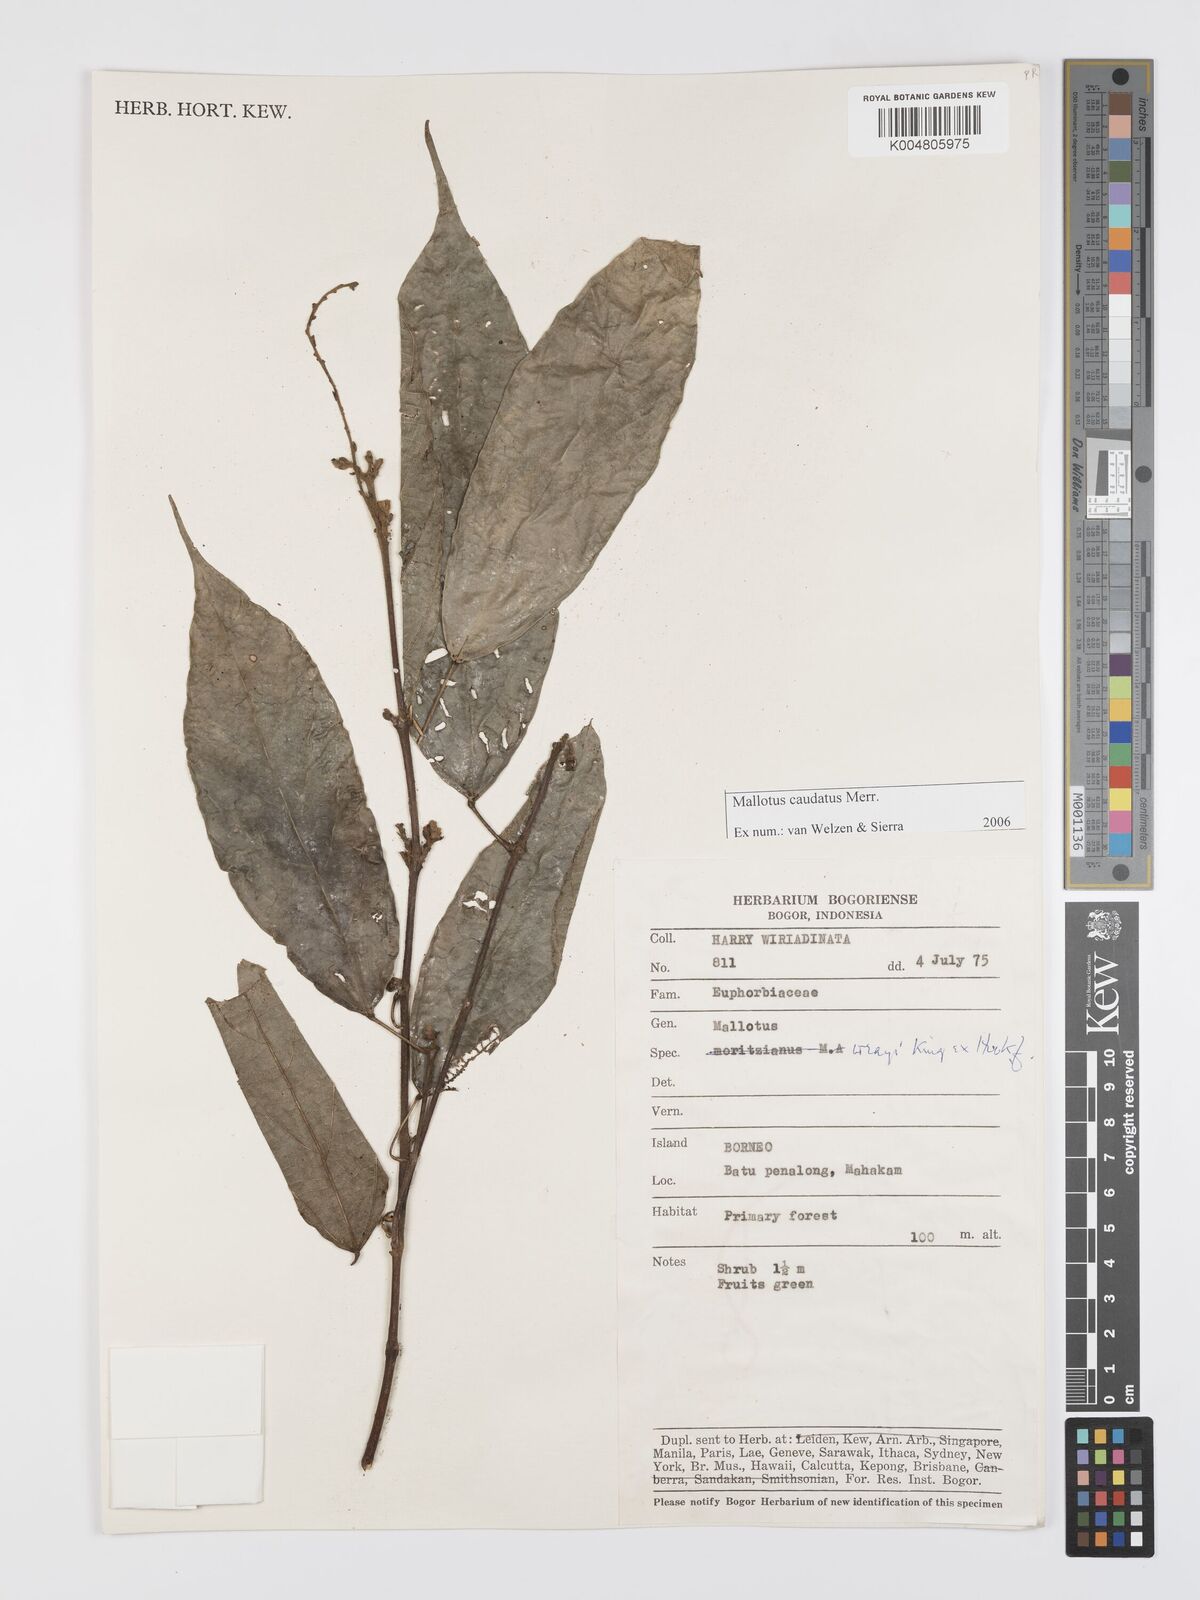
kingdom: Plantae
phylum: Tracheophyta
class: Magnoliopsida
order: Malpighiales
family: Euphorbiaceae
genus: Mallotus
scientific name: Mallotus caudatus
